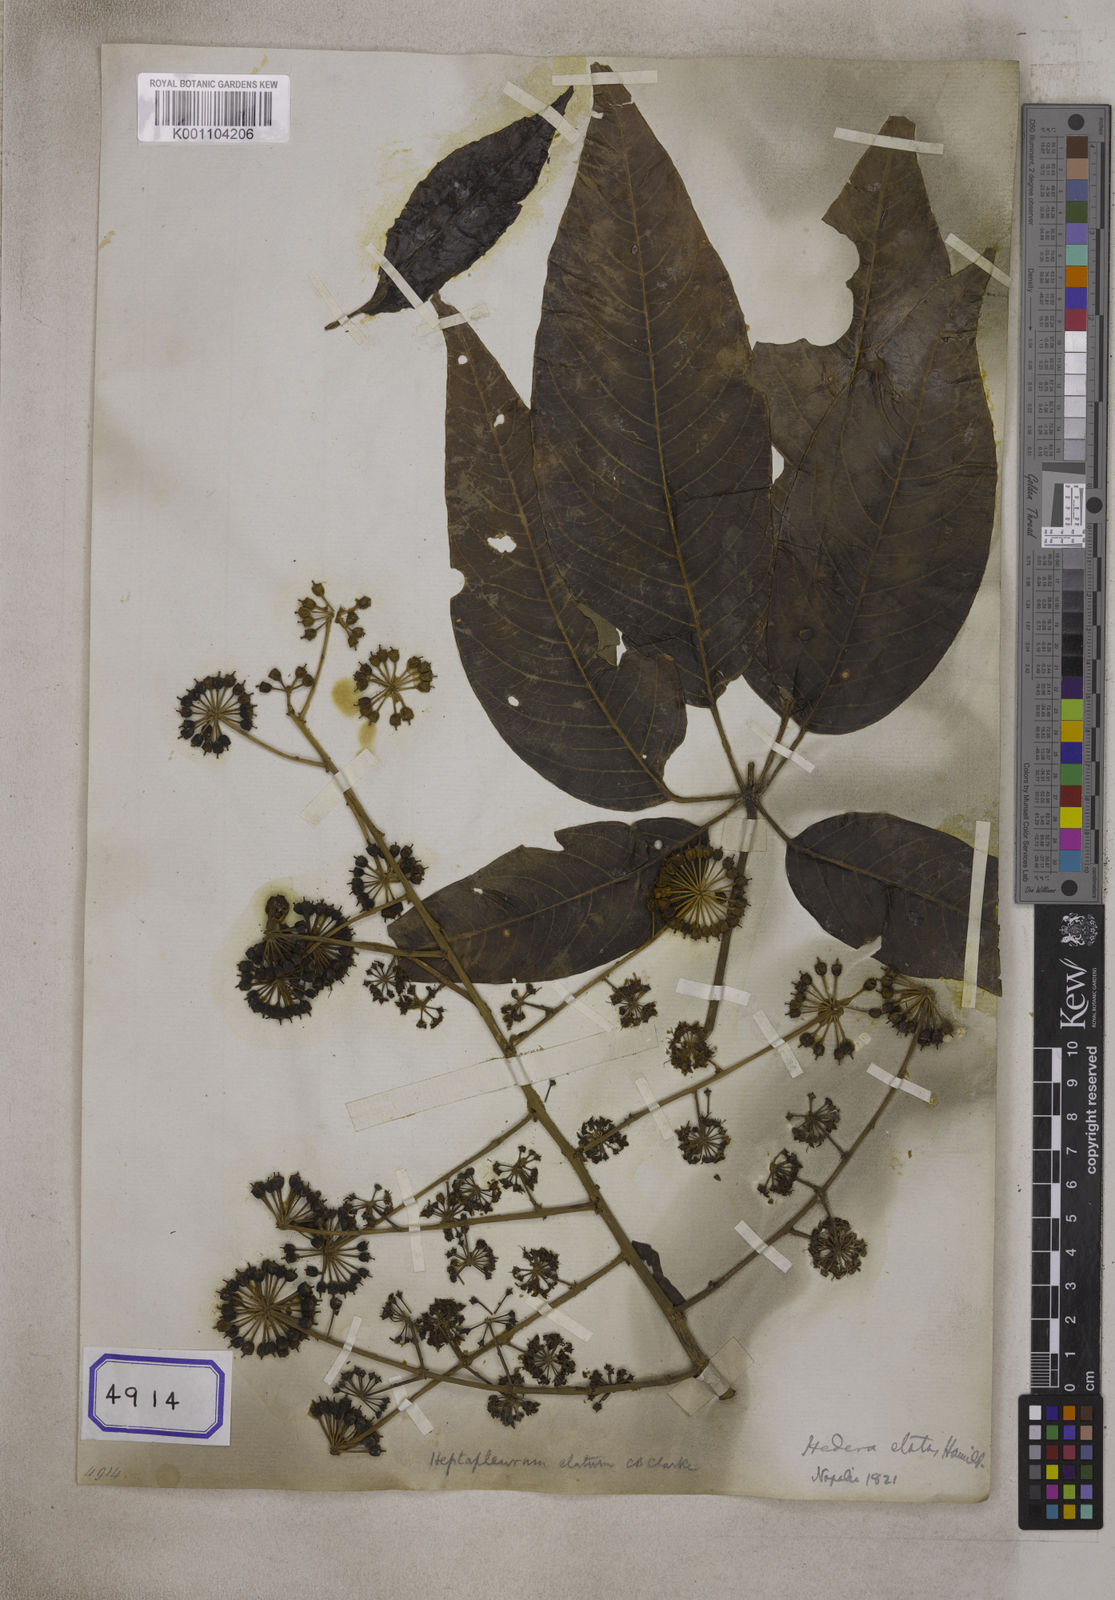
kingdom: Plantae
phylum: Tracheophyta
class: Magnoliopsida
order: Apiales
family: Araliaceae
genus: Hedera
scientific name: Hedera
